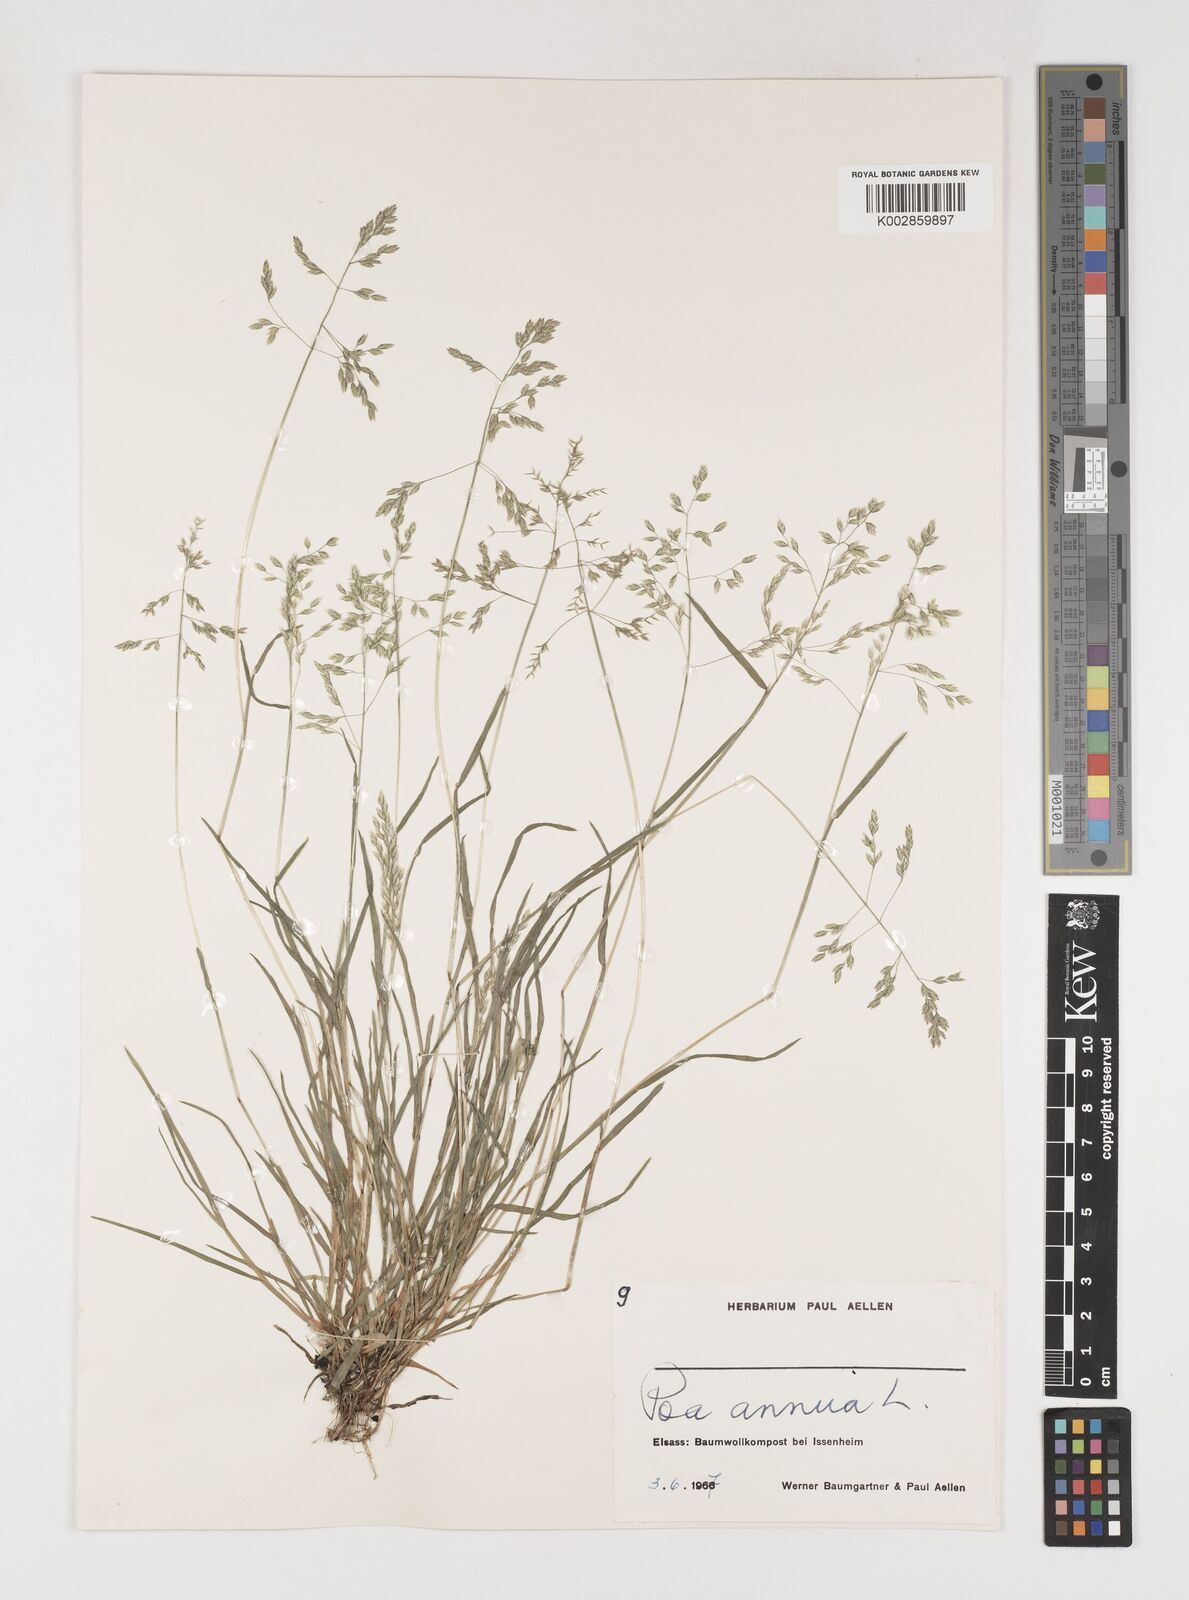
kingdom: Plantae
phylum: Tracheophyta
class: Liliopsida
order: Poales
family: Poaceae
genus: Poa
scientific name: Poa annua
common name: Annual bluegrass
